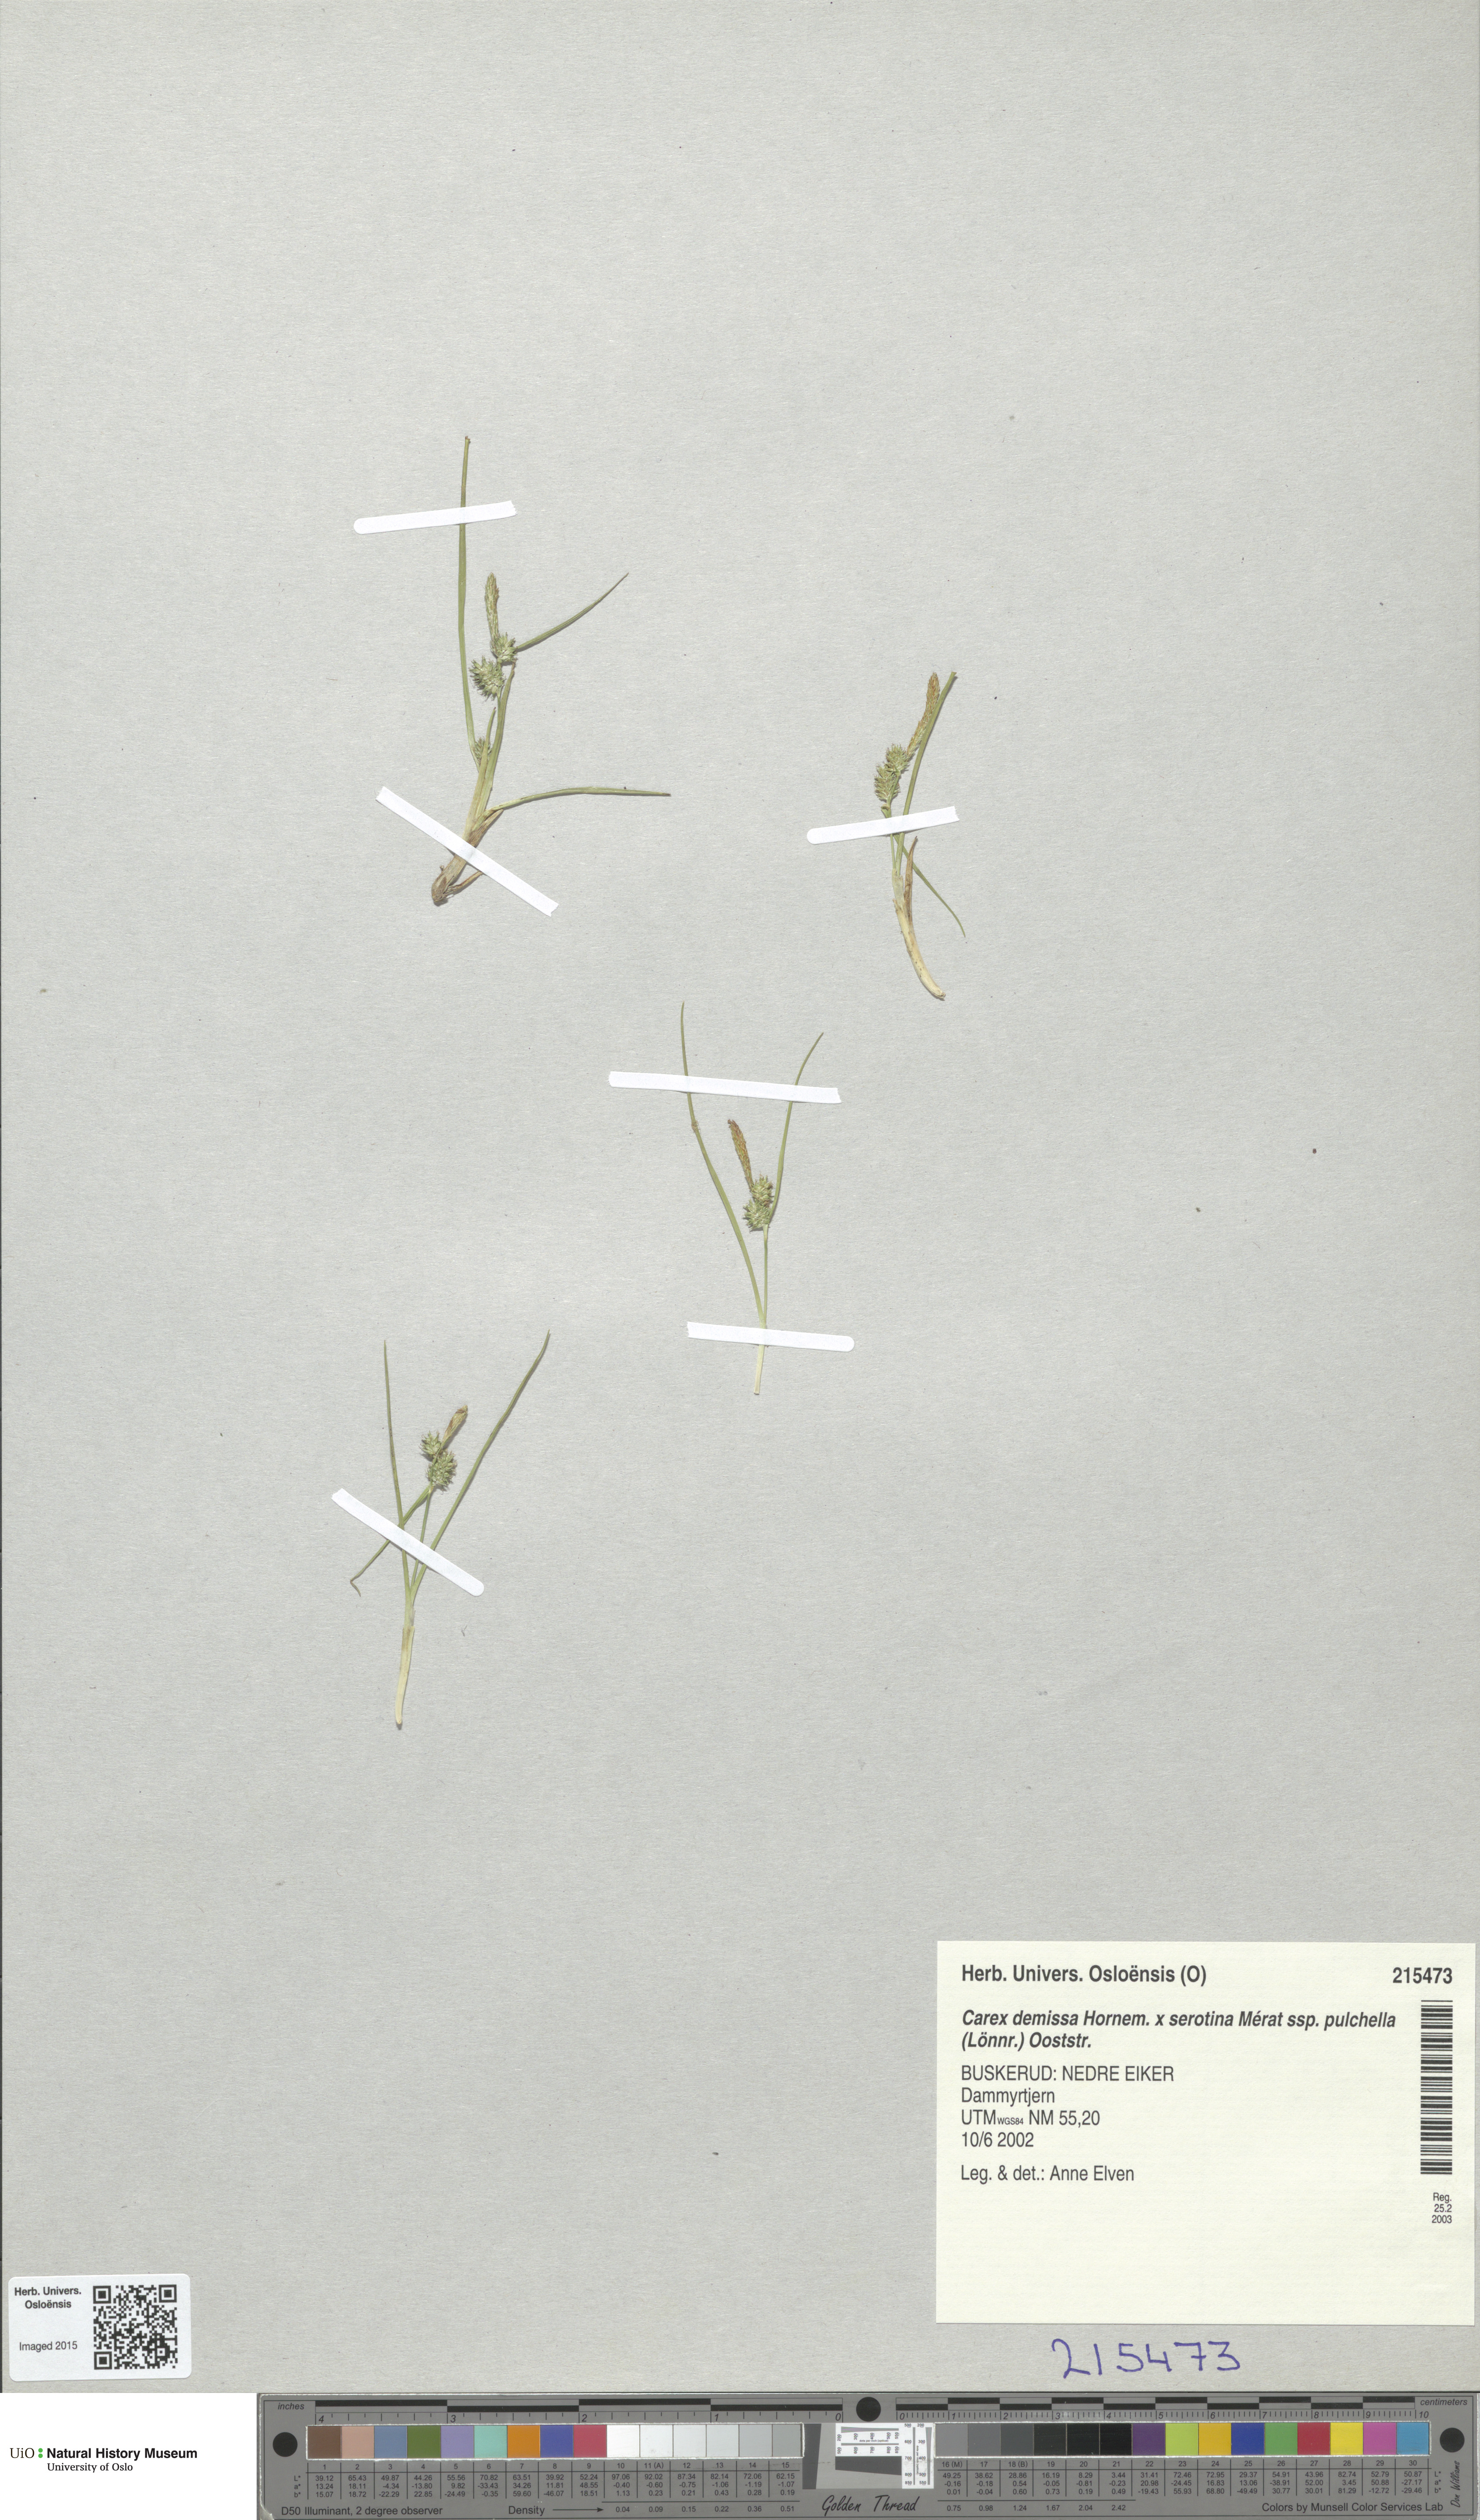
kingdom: Plantae
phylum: Tracheophyta
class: Liliopsida
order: Poales
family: Cyperaceae
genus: Carex
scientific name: Carex
